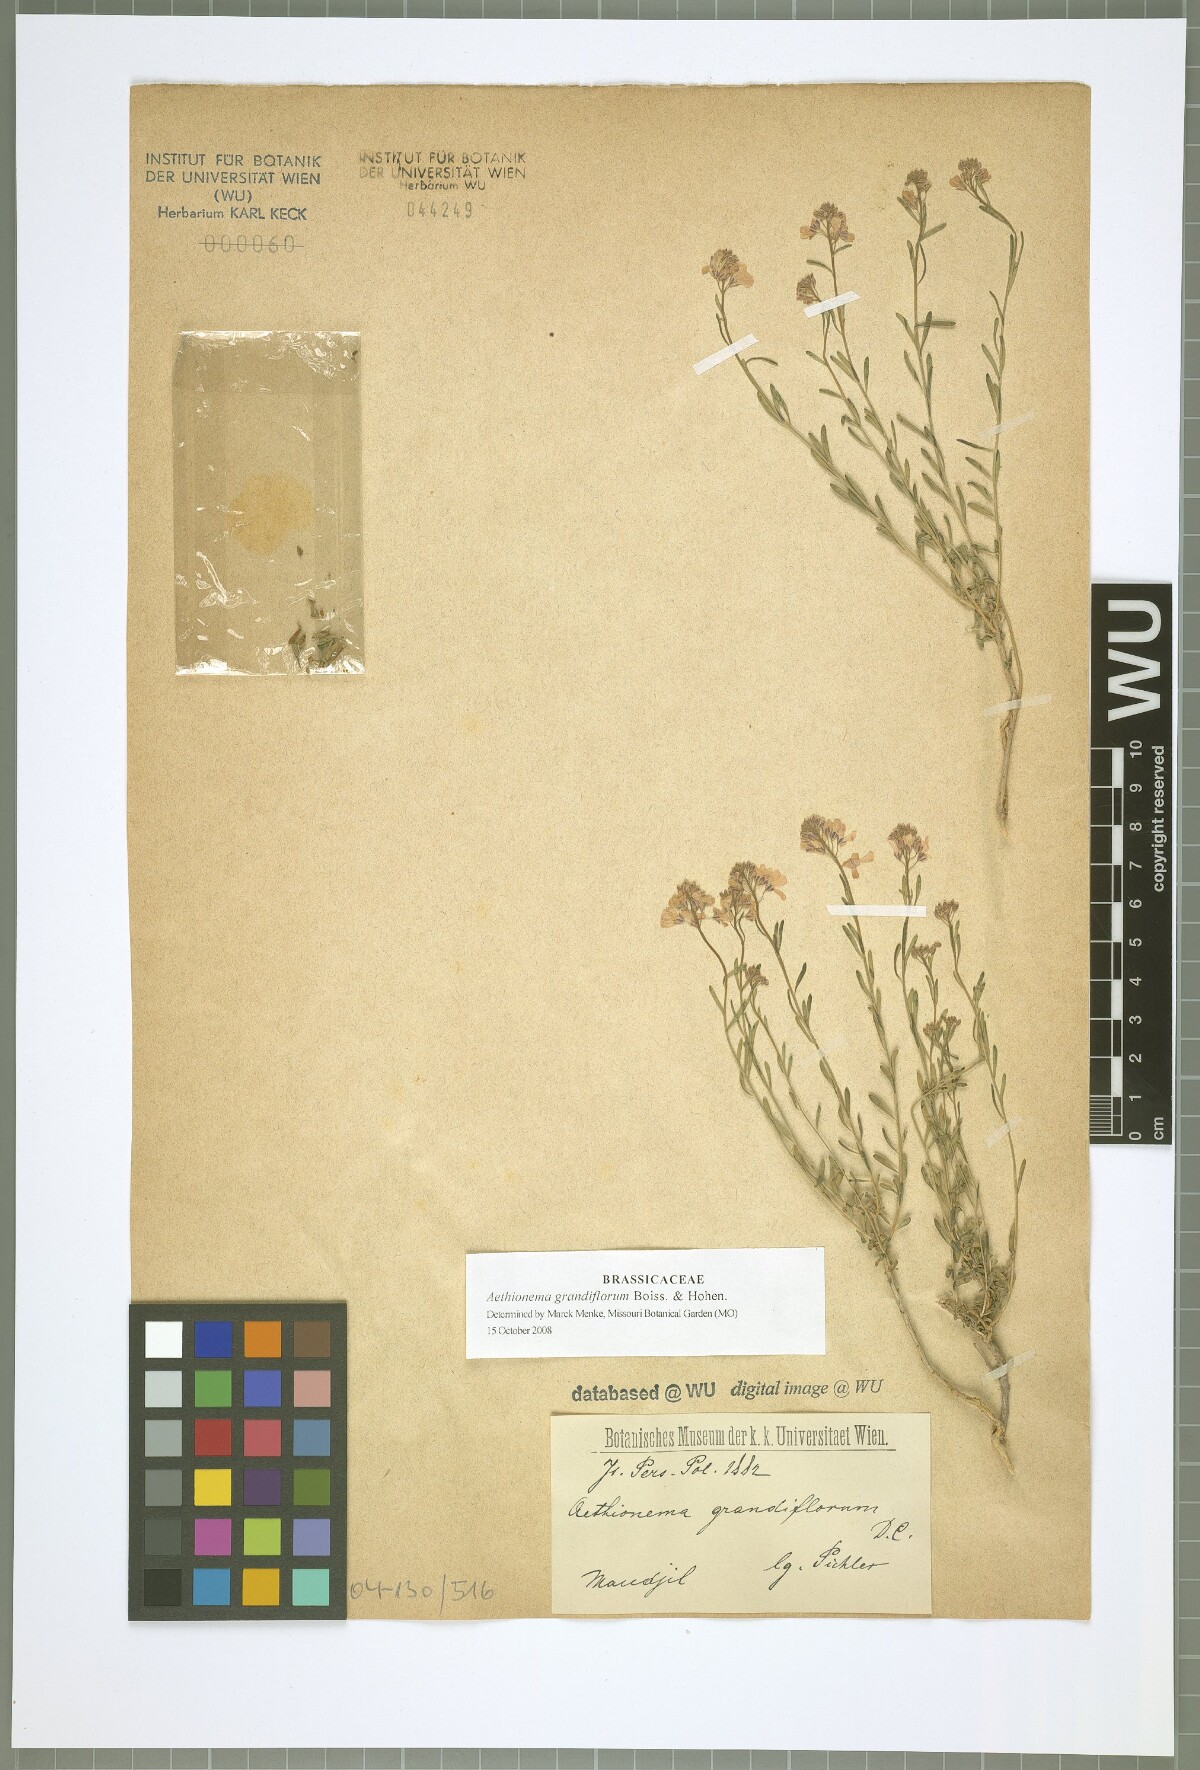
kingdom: Plantae
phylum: Tracheophyta
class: Magnoliopsida
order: Brassicales
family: Brassicaceae
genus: Aethionema
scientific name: Aethionema grandiflorum
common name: Persian stonecress
